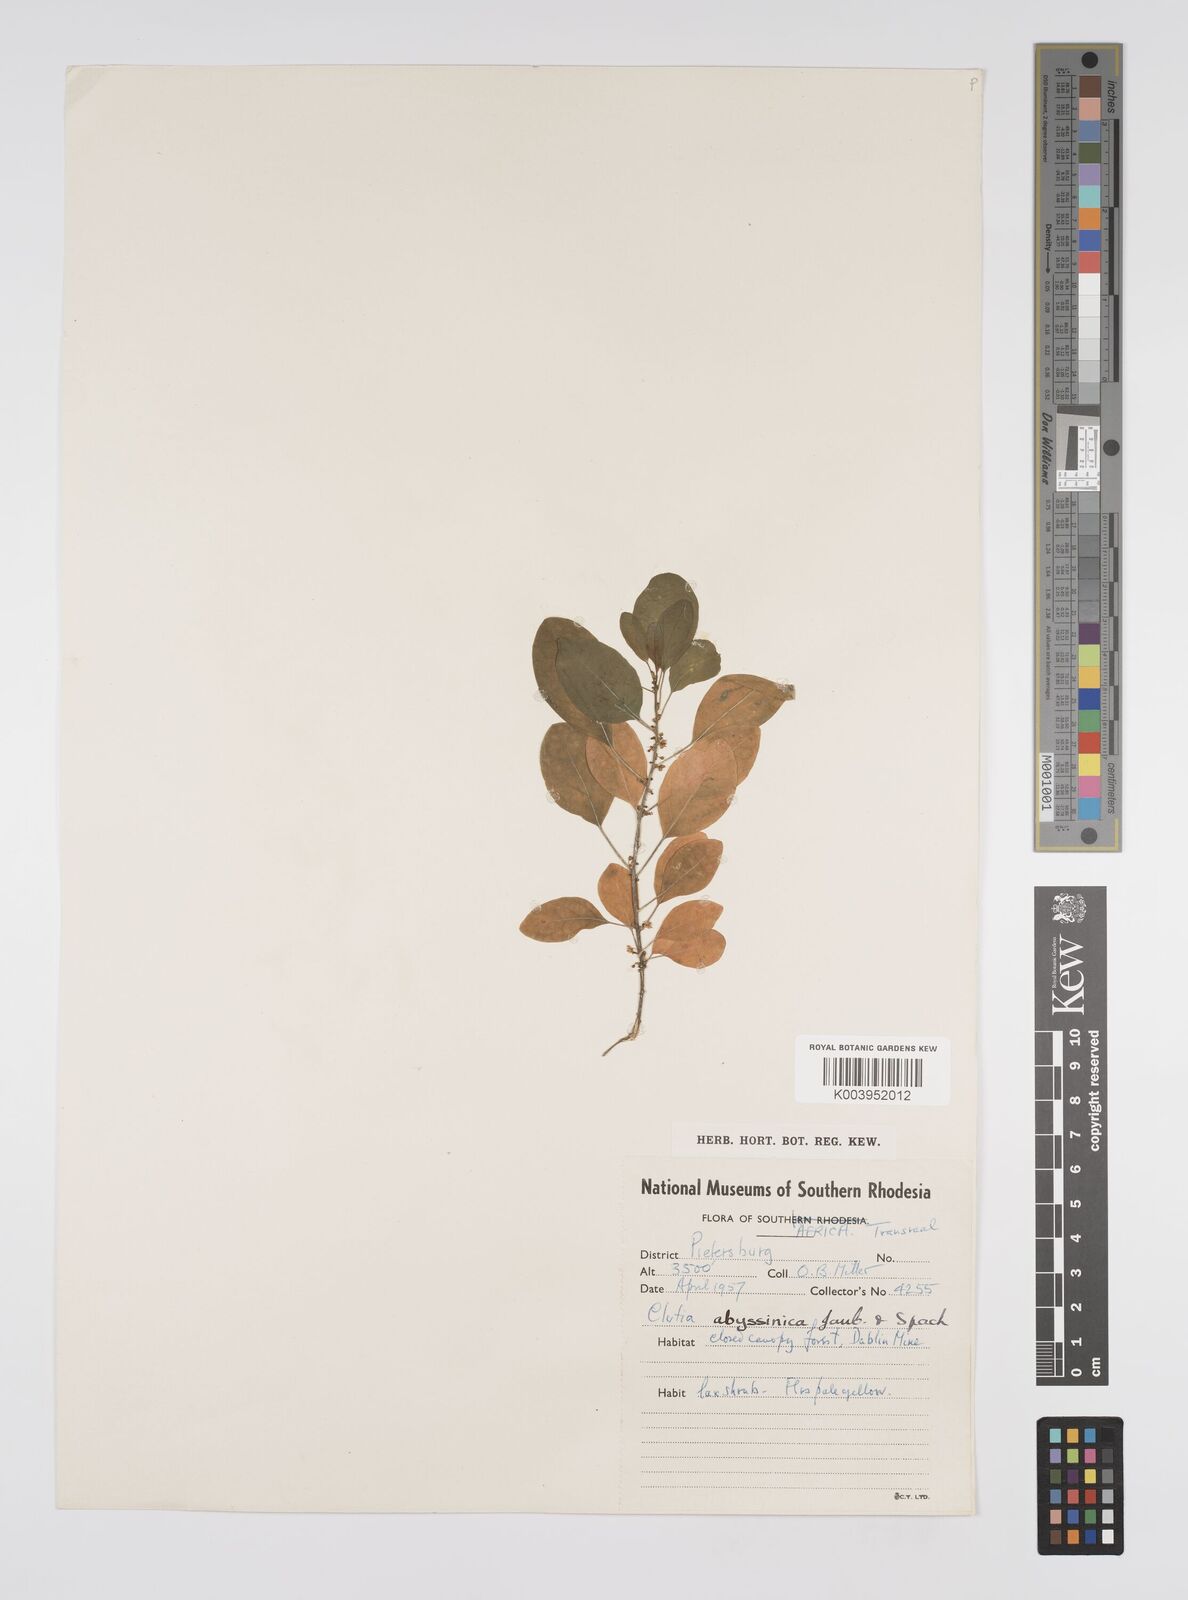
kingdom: Plantae
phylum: Tracheophyta
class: Magnoliopsida
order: Malpighiales
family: Peraceae
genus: Clutia
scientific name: Clutia pulchella
